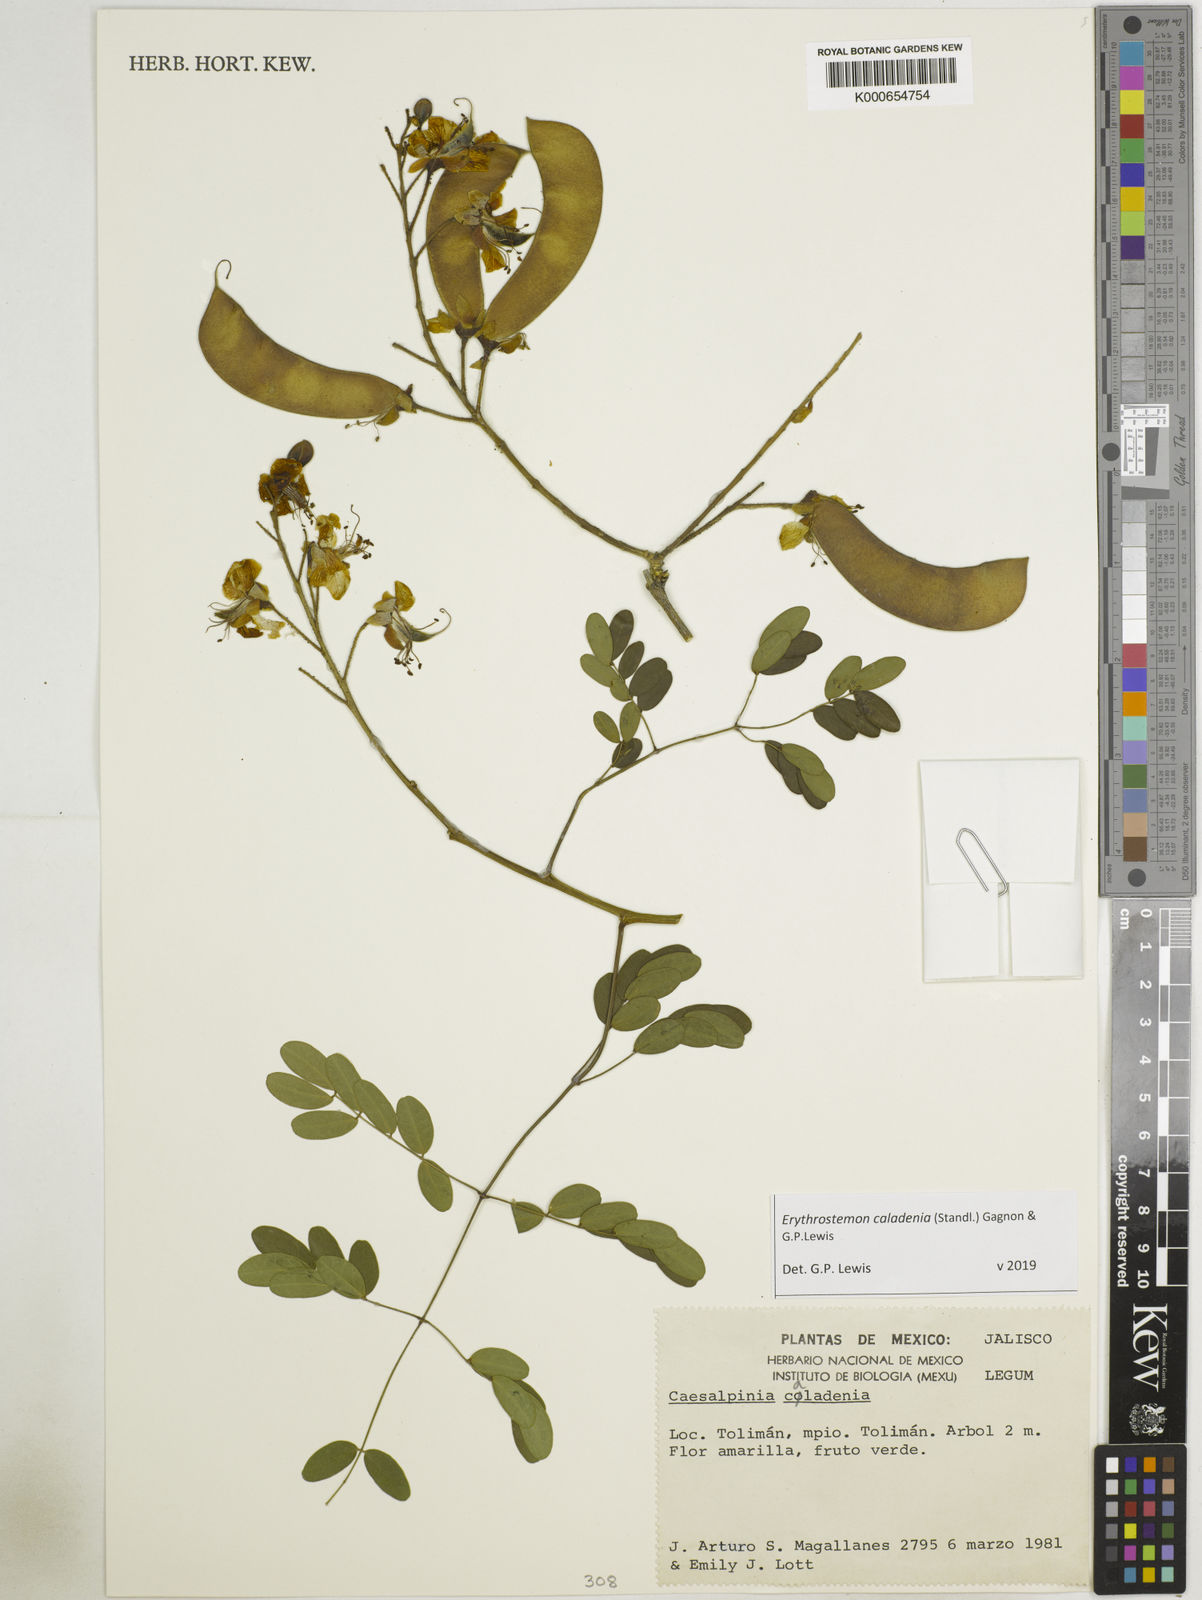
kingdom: Plantae
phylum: Tracheophyta
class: Magnoliopsida
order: Fabales
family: Fabaceae
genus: Erythrostemon
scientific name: Erythrostemon caladenia
